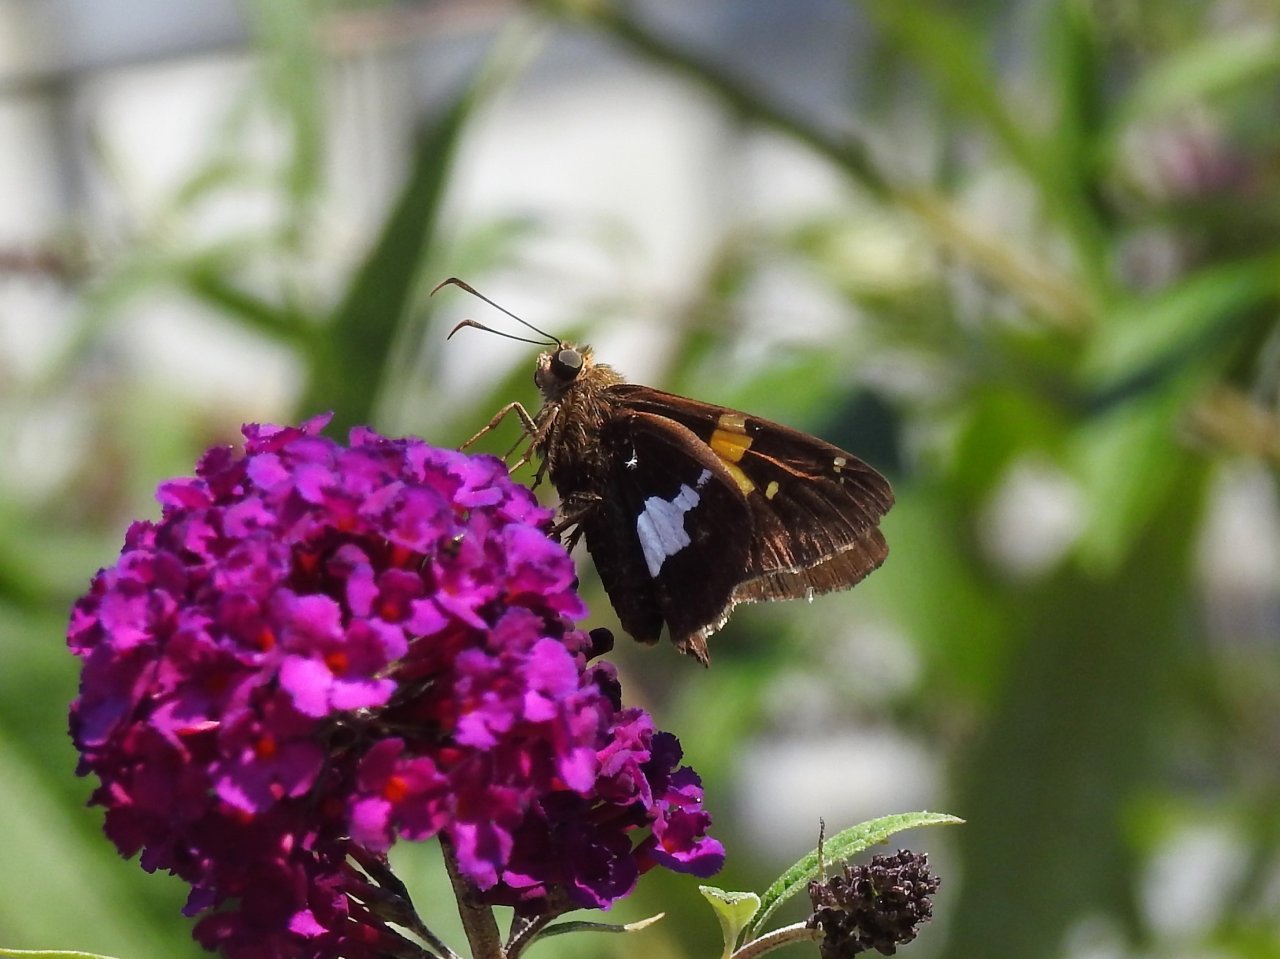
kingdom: Animalia
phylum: Arthropoda
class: Insecta
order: Lepidoptera
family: Hesperiidae
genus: Epargyreus
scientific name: Epargyreus clarus
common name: Silver-spotted Skipper
